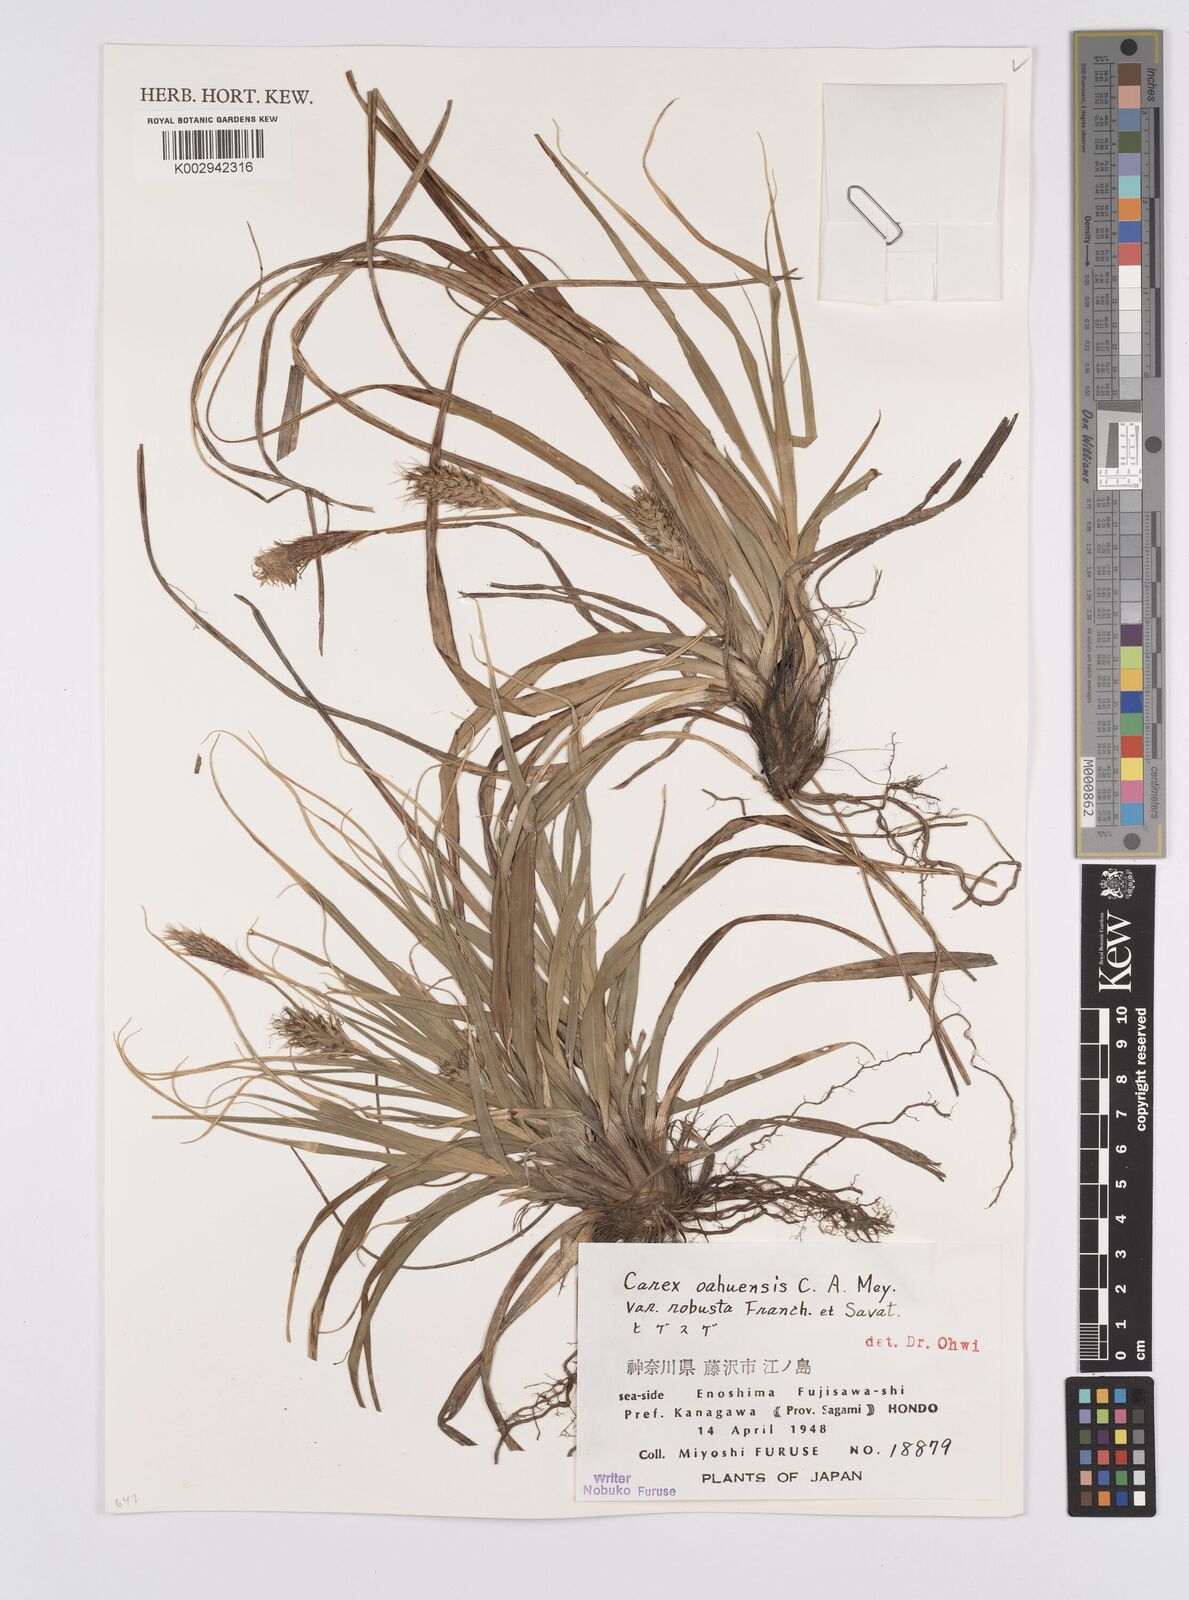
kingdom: Plantae
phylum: Tracheophyta
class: Liliopsida
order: Poales
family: Cyperaceae
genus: Carex
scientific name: Carex wahuensis
